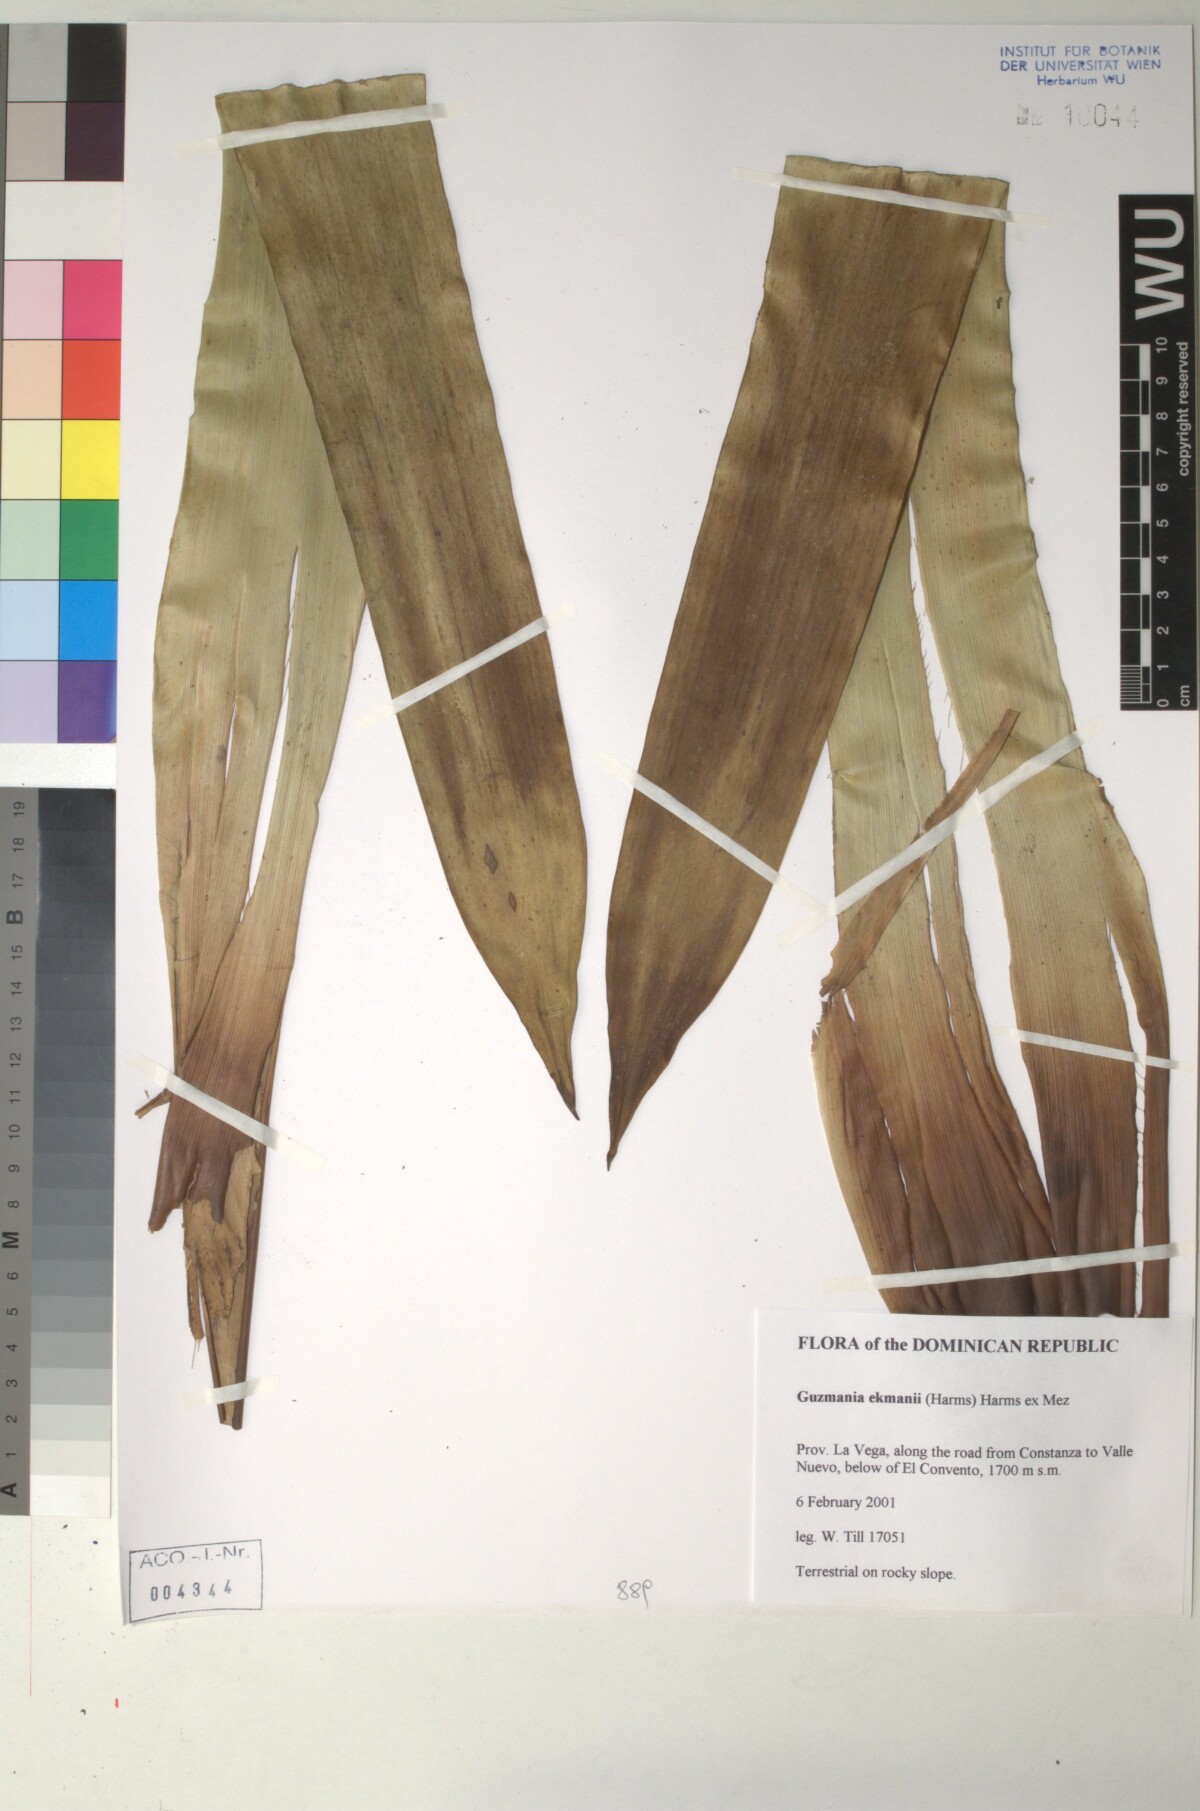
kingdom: Plantae
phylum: Tracheophyta
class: Liliopsida
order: Poales
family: Bromeliaceae
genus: Guzmania
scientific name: Guzmania ekmanii
